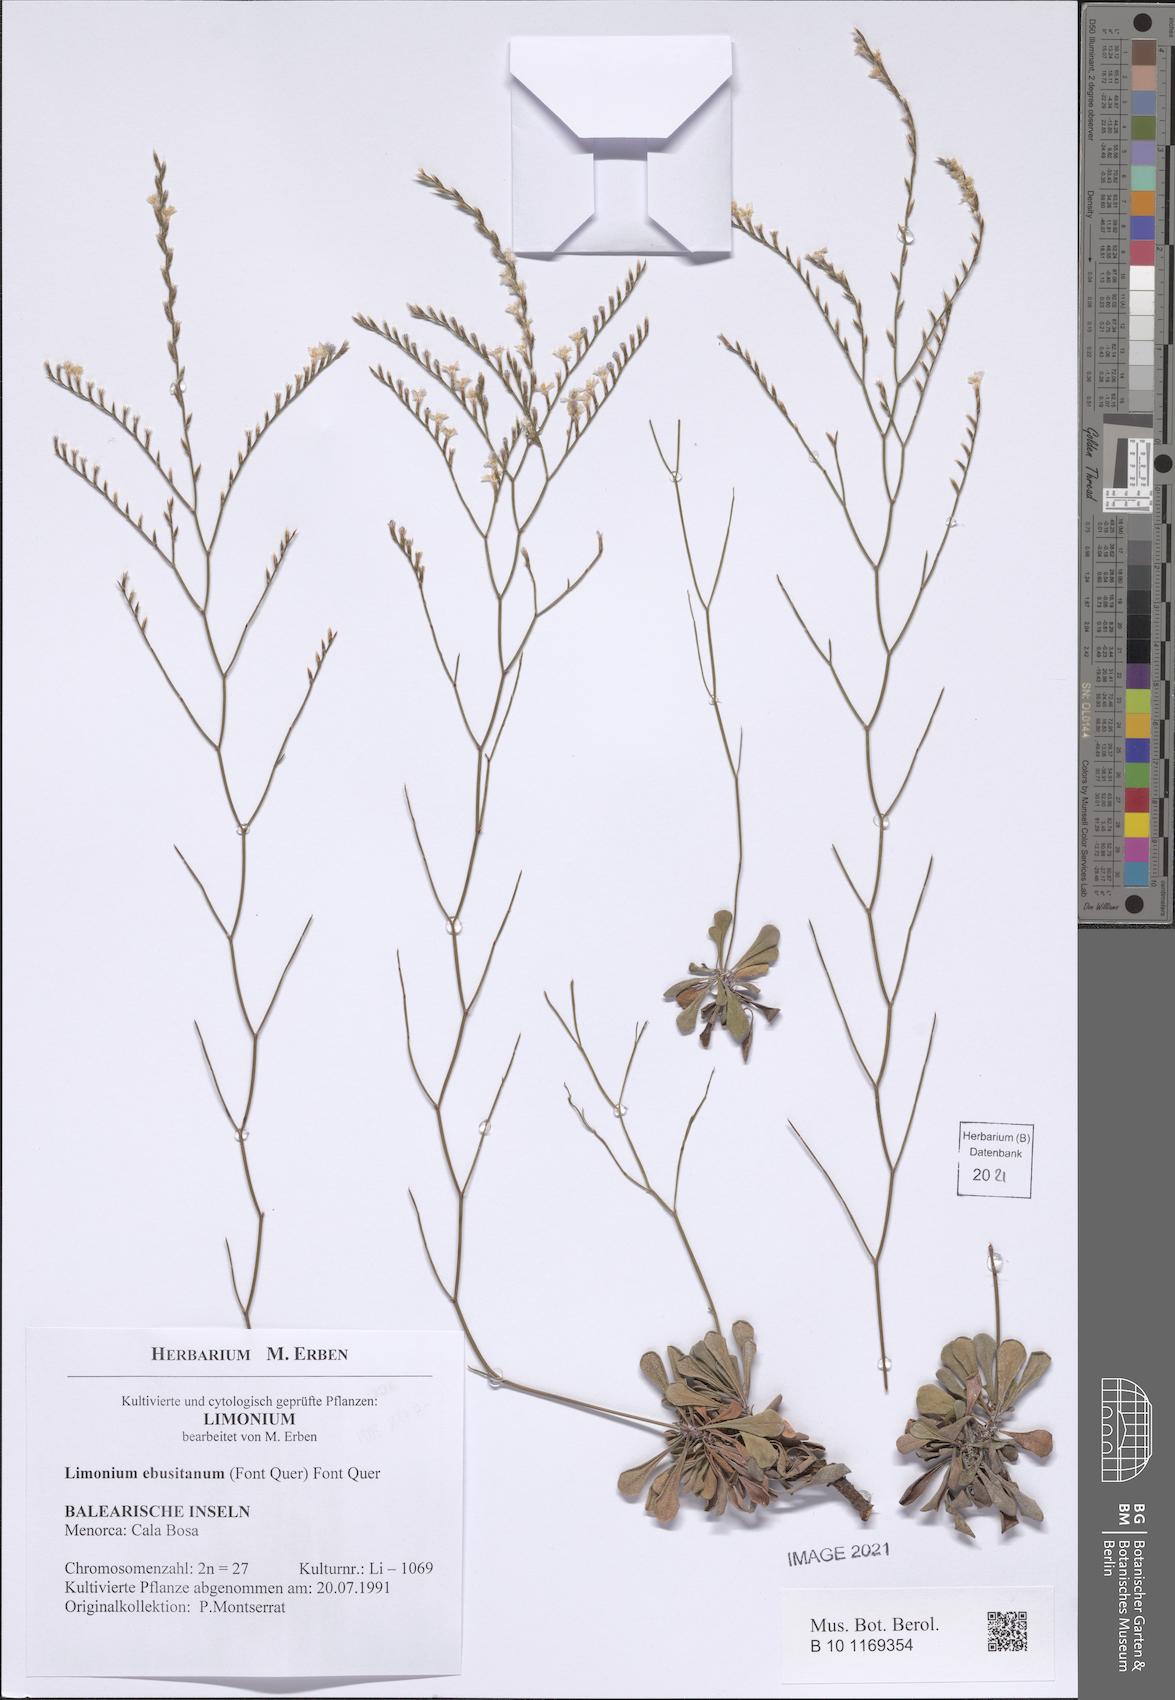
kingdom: Plantae
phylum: Tracheophyta
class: Magnoliopsida
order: Caryophyllales
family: Plumbaginaceae
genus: Limonium
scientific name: Limonium ebusitanum
